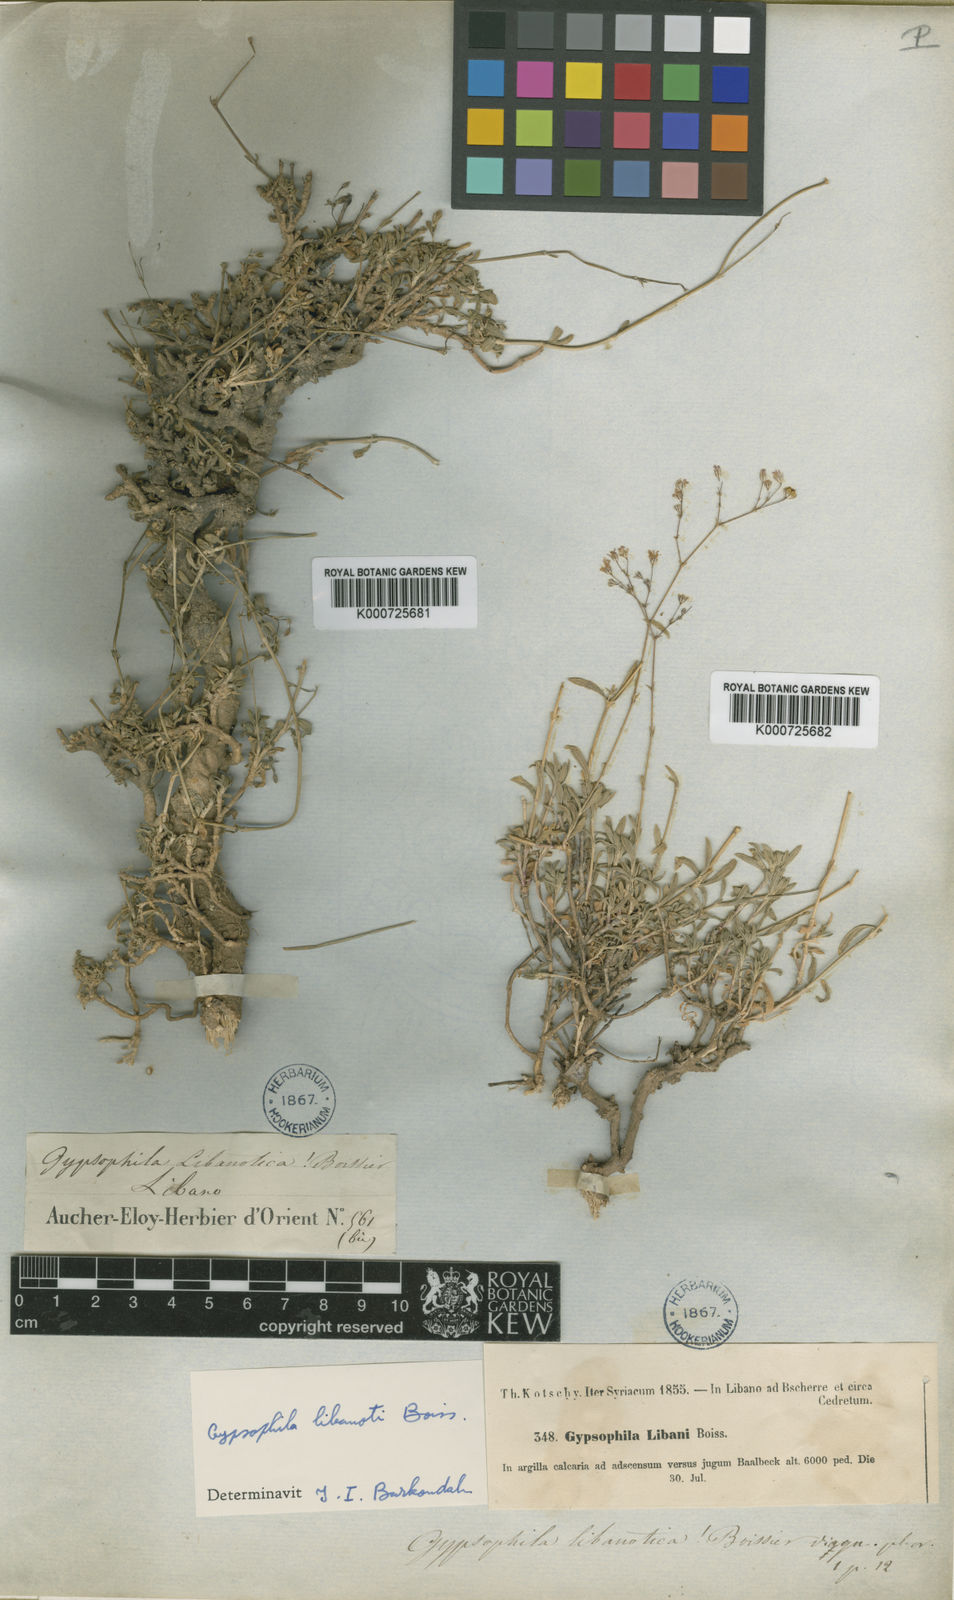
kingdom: Plantae
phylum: Tracheophyta
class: Magnoliopsida
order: Caryophyllales
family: Caryophyllaceae
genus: Gypsophila
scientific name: Gypsophila libanotica
